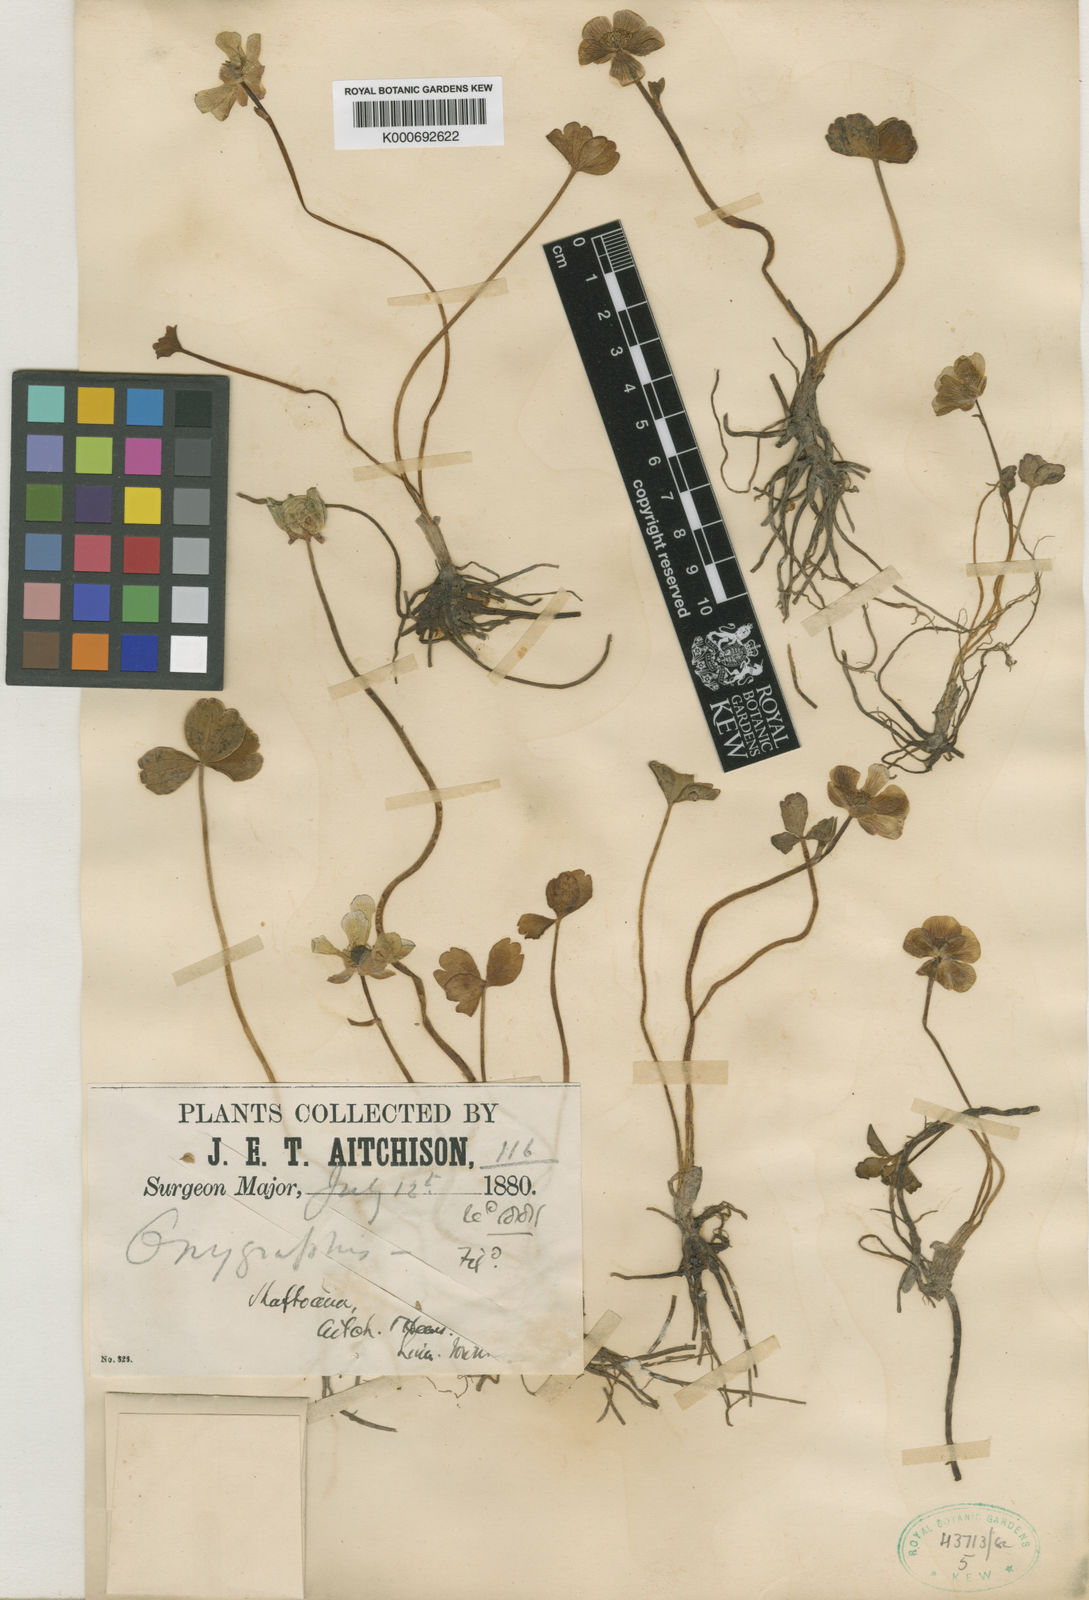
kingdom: Plantae
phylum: Tracheophyta
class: Magnoliopsida
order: Ranunculales
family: Ranunculaceae
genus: Ranunculus
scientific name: Ranunculus
